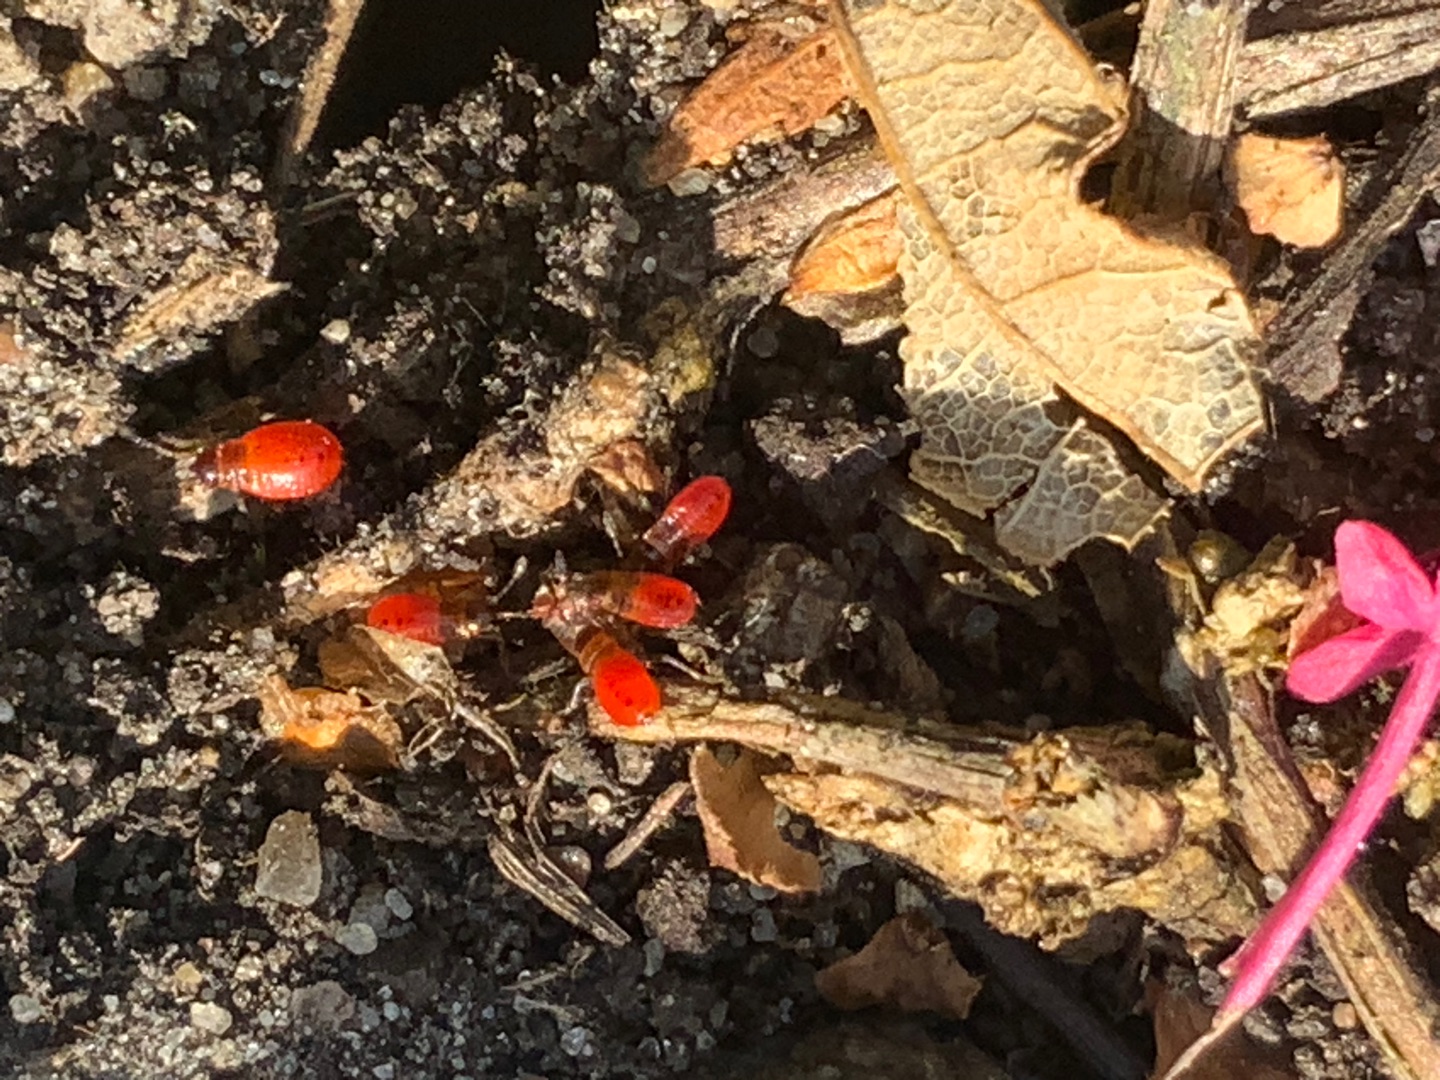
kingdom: Animalia
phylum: Arthropoda
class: Insecta
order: Hemiptera
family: Pyrrhocoridae
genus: Pyrrhocoris
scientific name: Pyrrhocoris apterus
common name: Ildtæge
